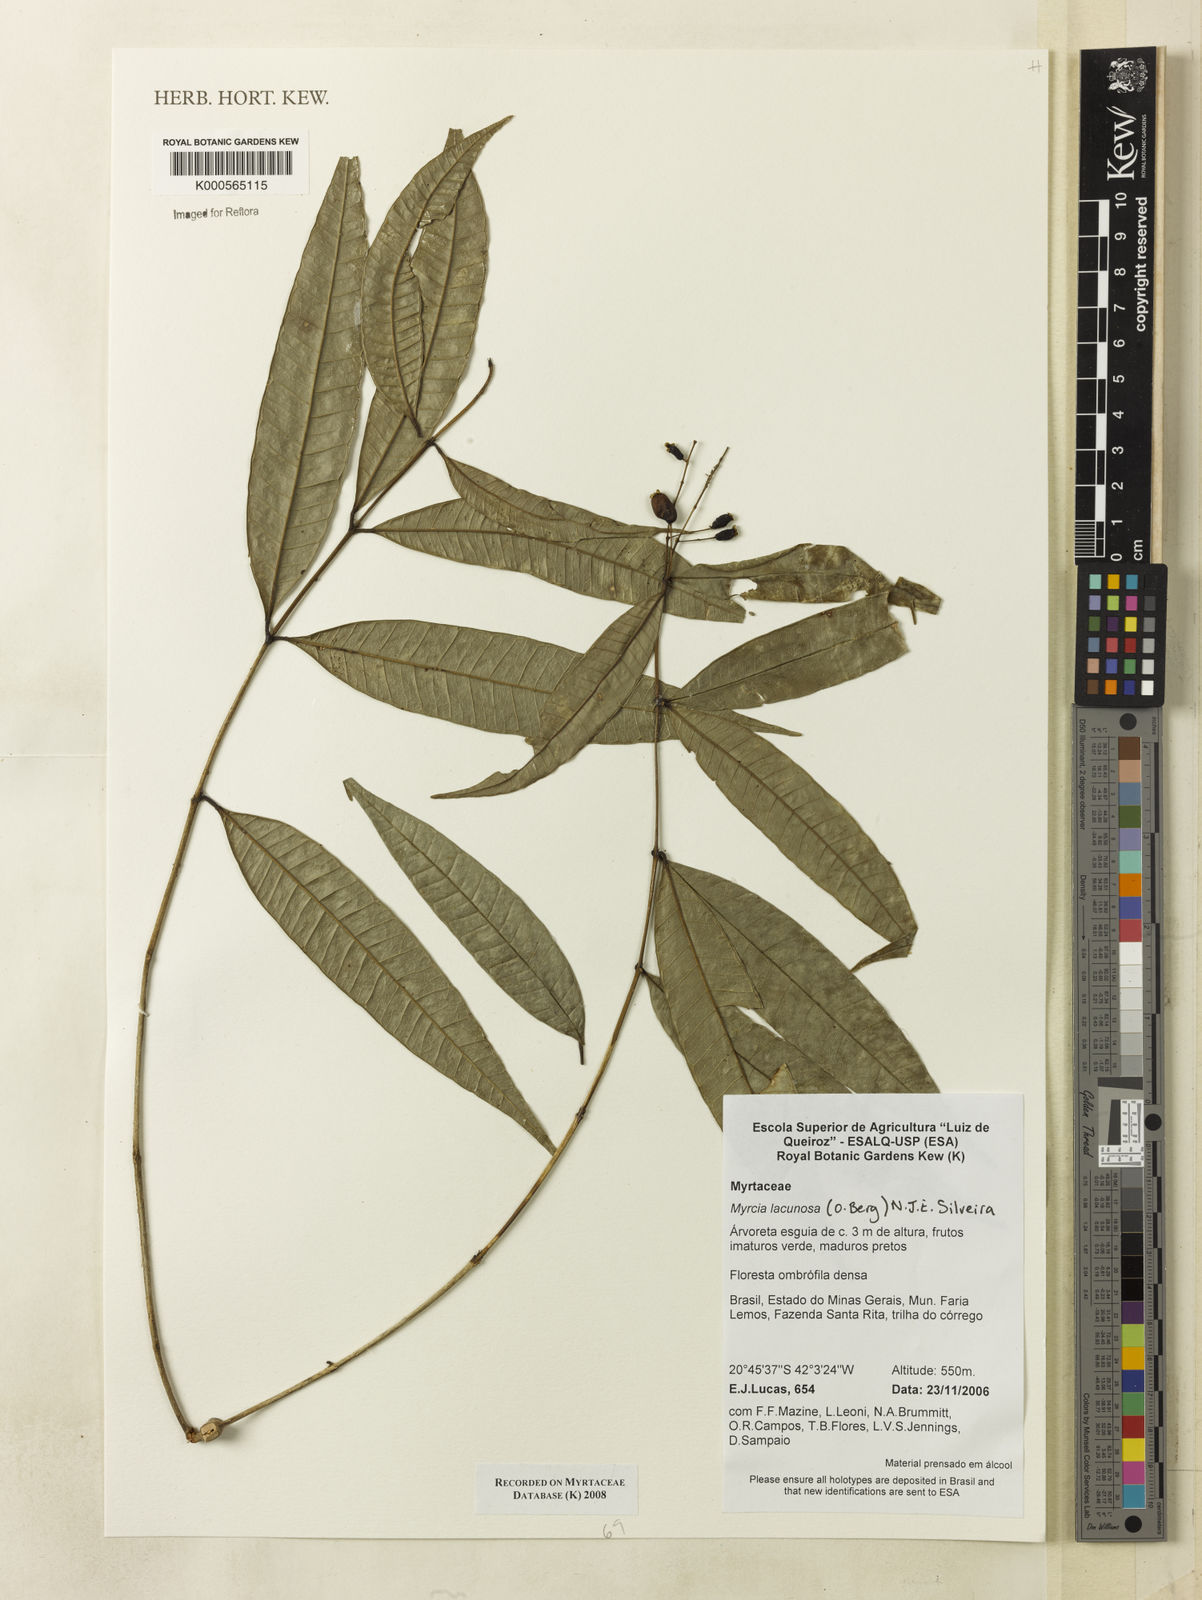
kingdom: Plantae
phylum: Tracheophyta
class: Magnoliopsida
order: Myrtales
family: Myrtaceae
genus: Myrcia
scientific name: Myrcia lacunosa
